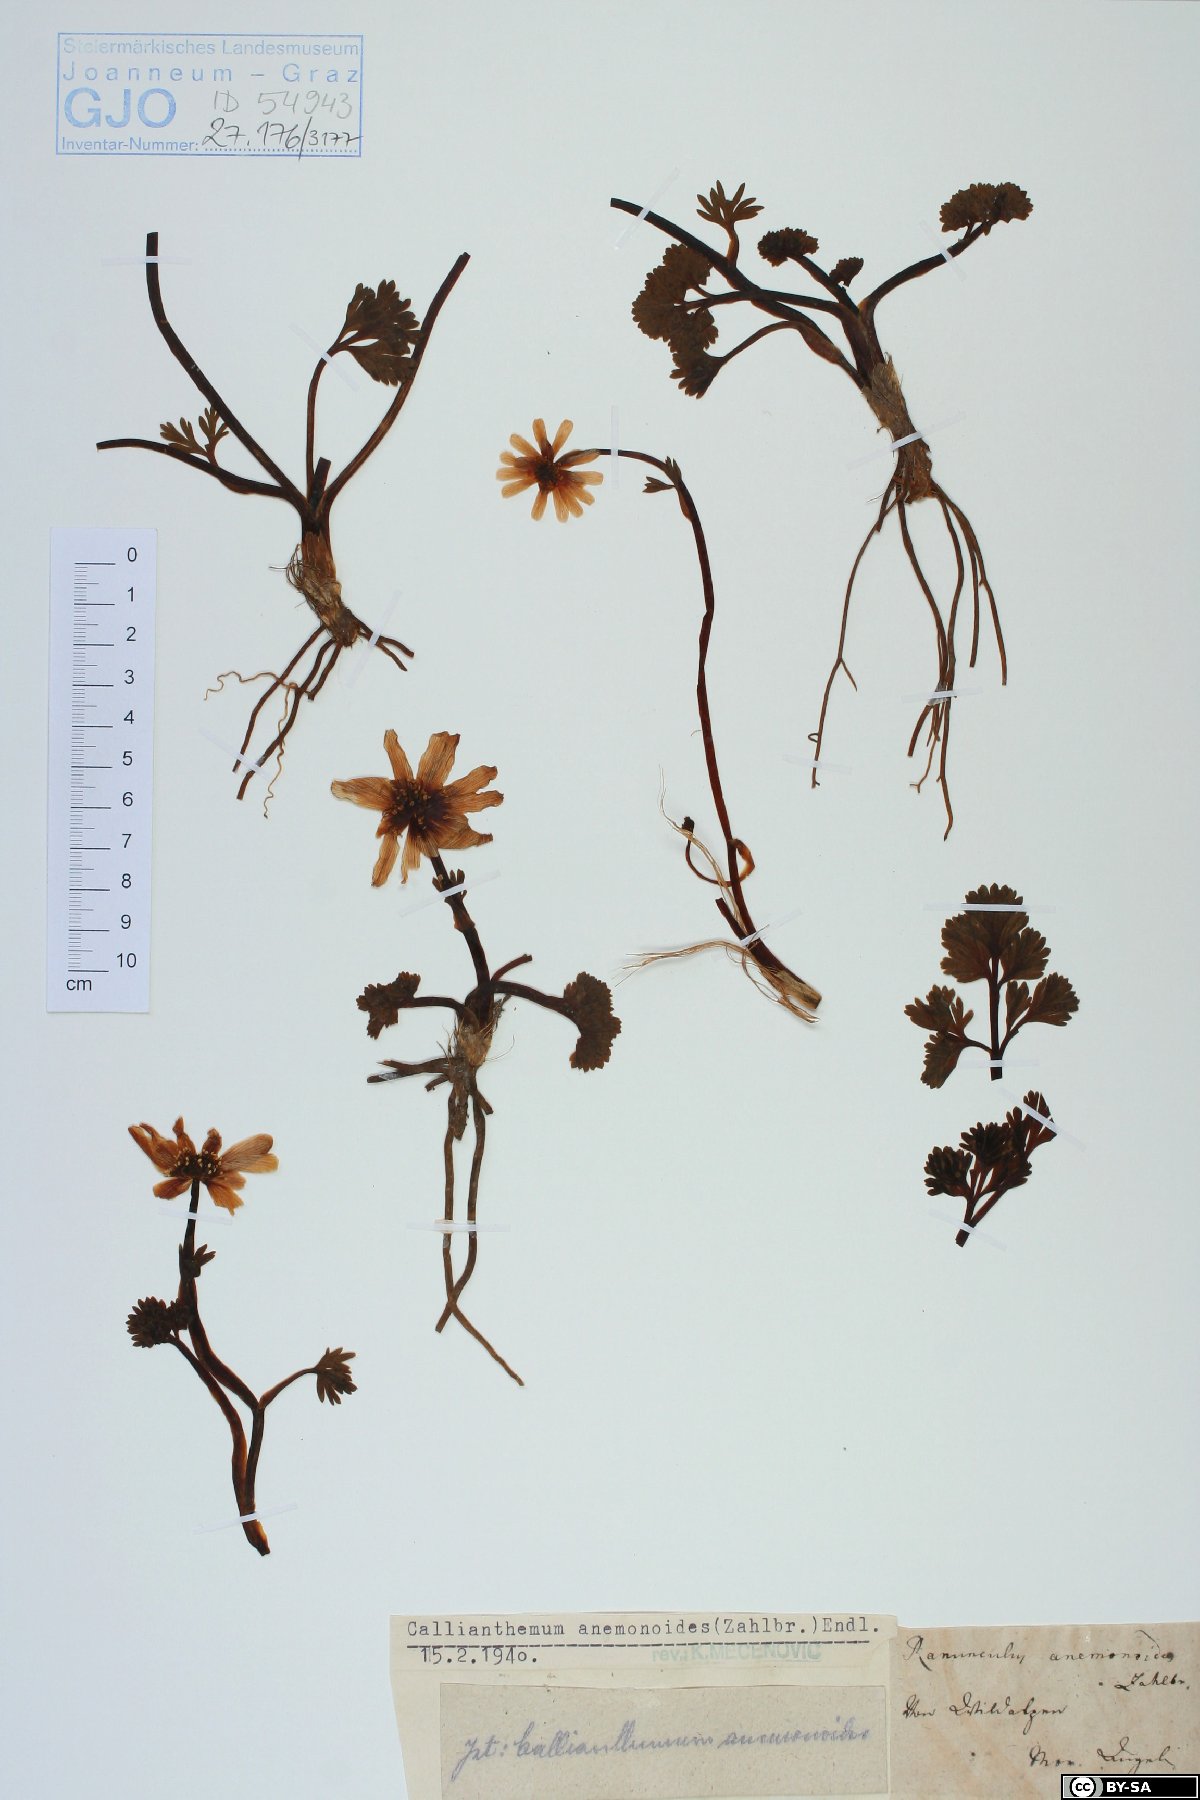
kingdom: Plantae
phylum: Tracheophyta
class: Magnoliopsida
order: Ranunculales
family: Ranunculaceae
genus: Callianthemum
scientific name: Callianthemum anemonoides
